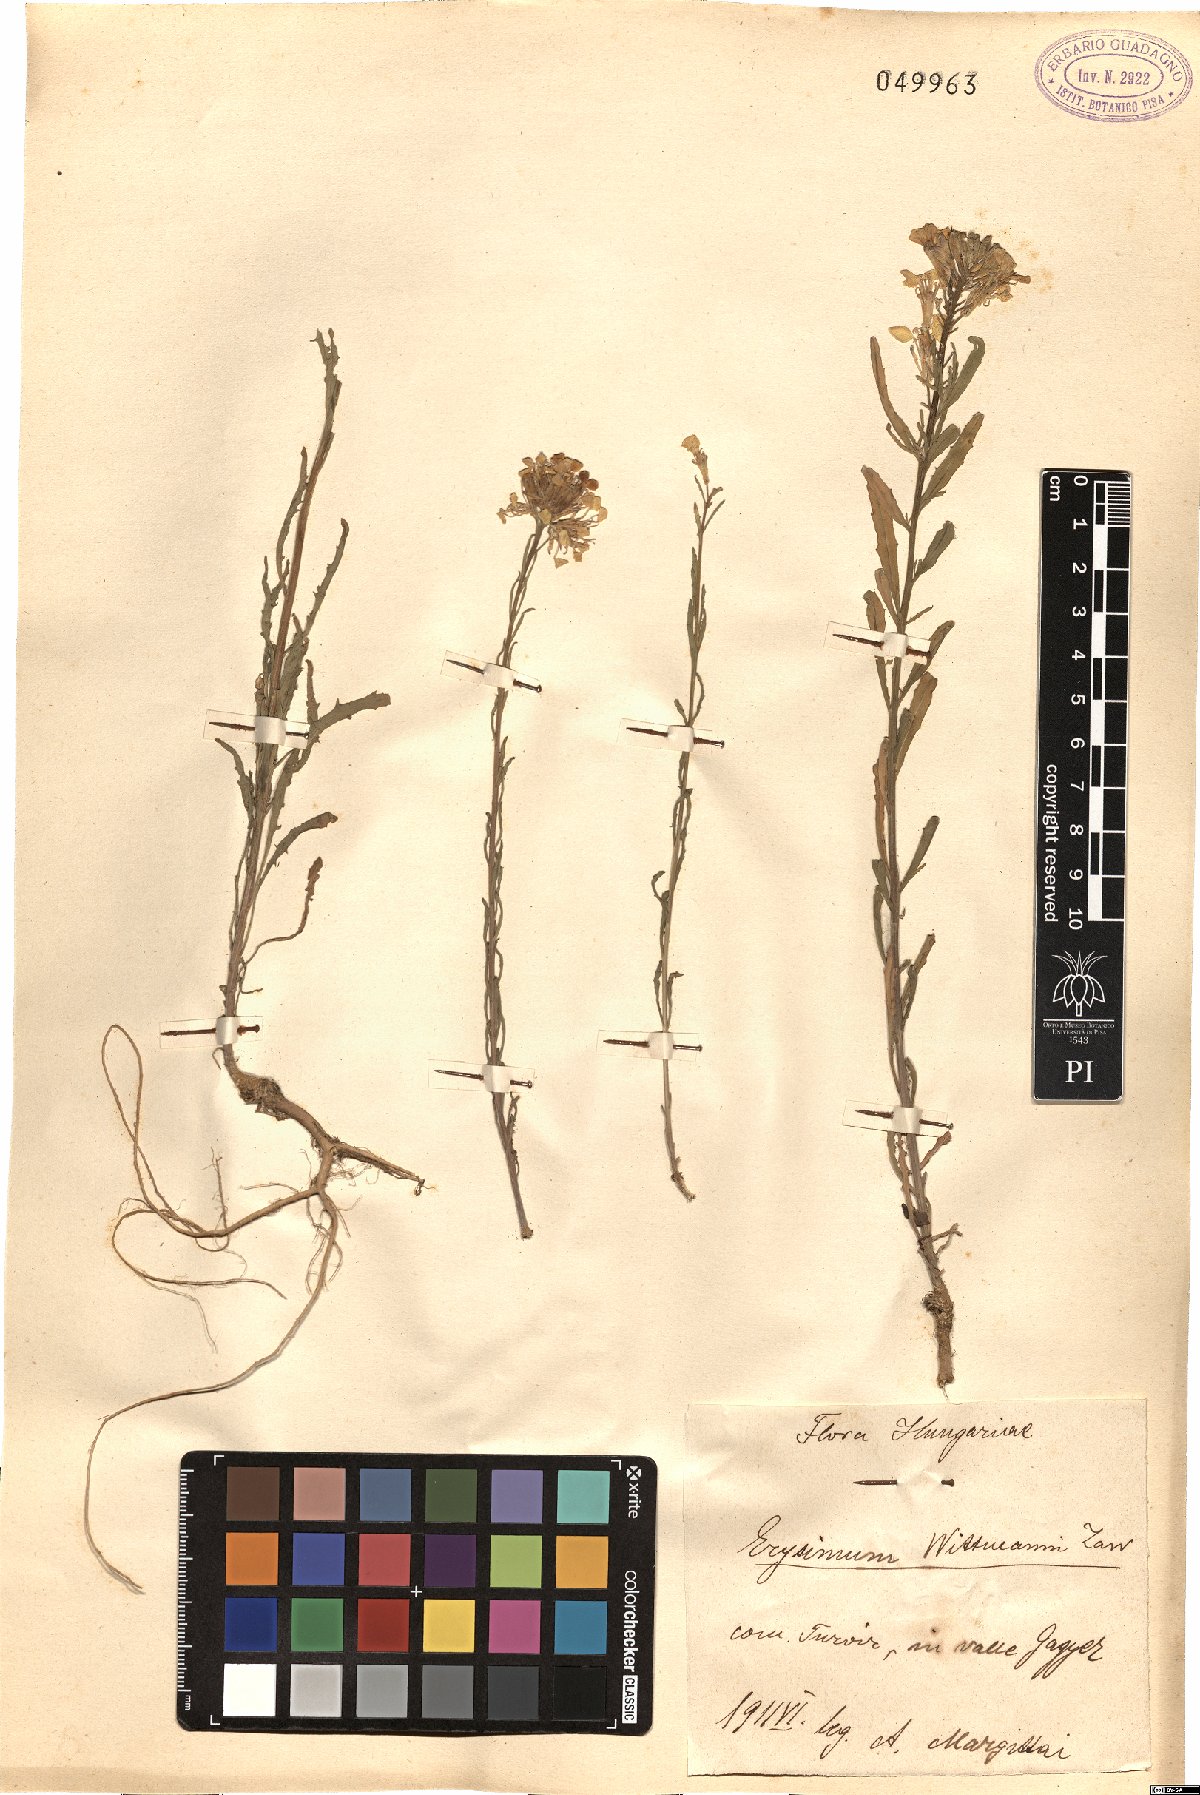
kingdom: Plantae
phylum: Tracheophyta
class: Magnoliopsida
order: Brassicales
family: Brassicaceae
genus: Erysimum
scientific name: Erysimum witmannii
